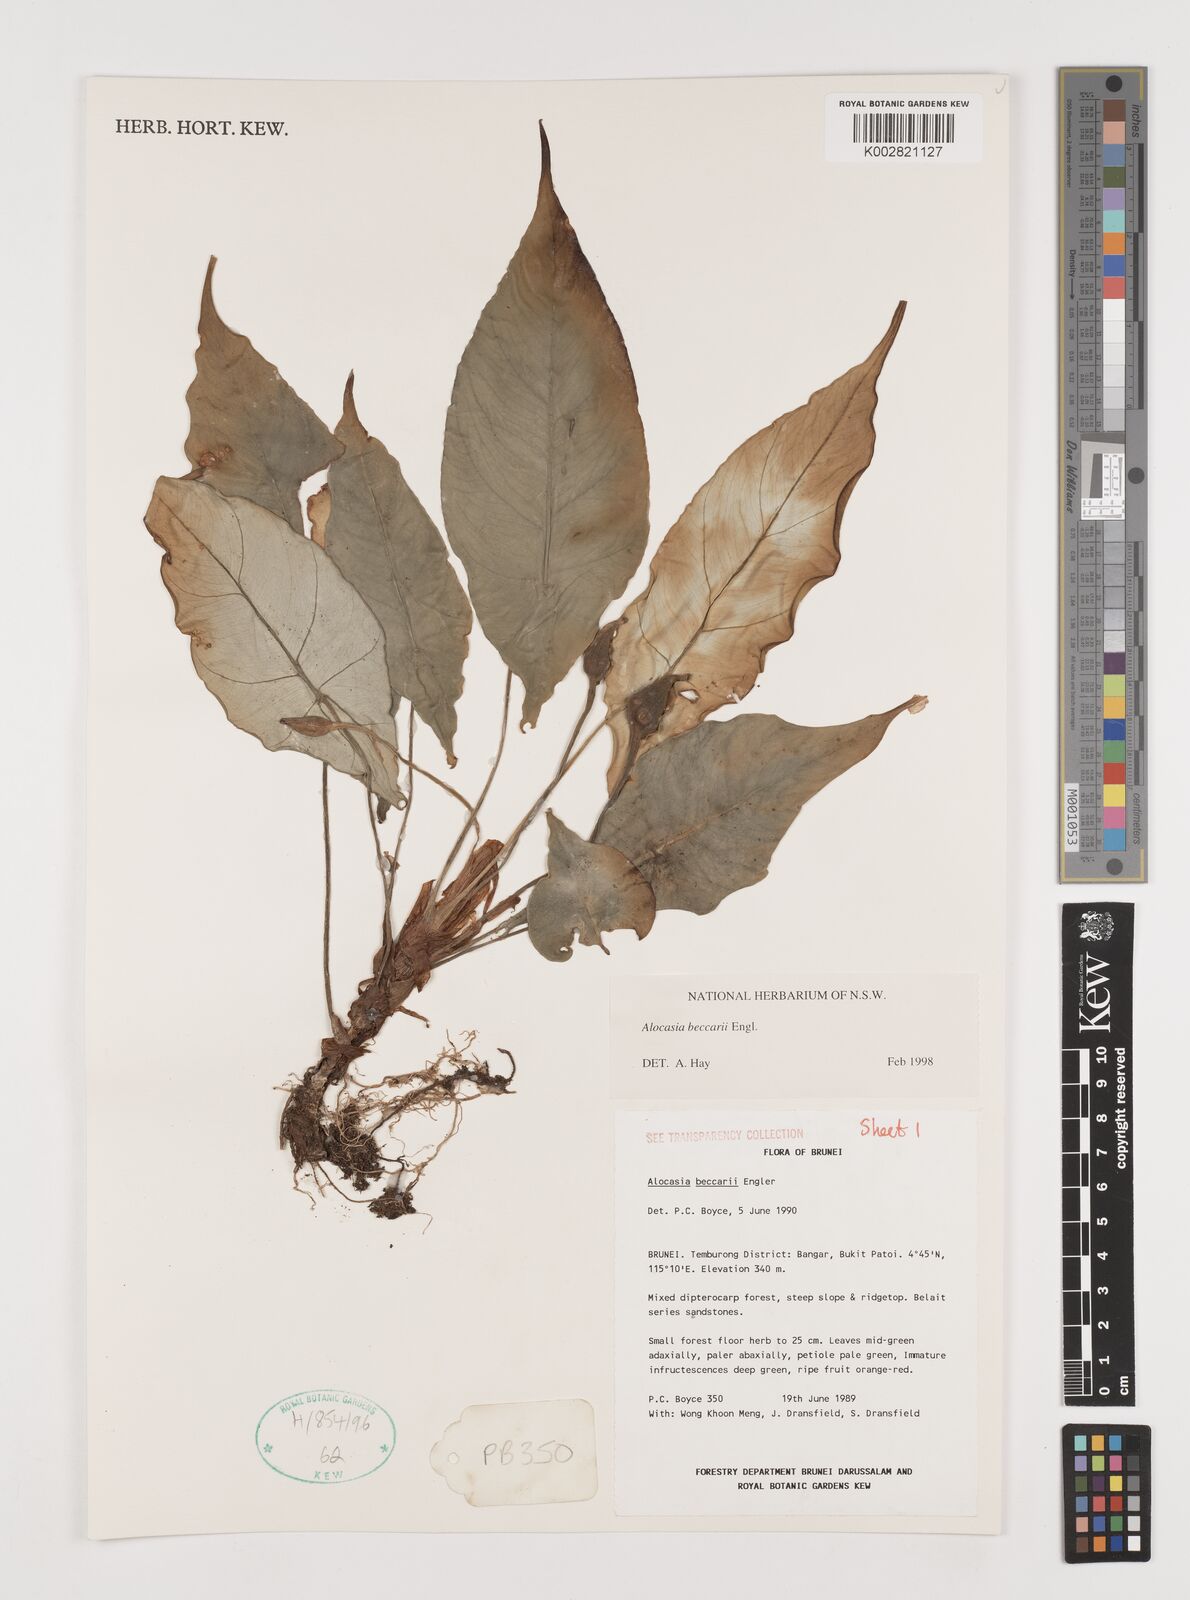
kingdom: Plantae
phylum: Tracheophyta
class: Liliopsida
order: Alismatales
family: Araceae
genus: Alocasia
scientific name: Alocasia beccarii
